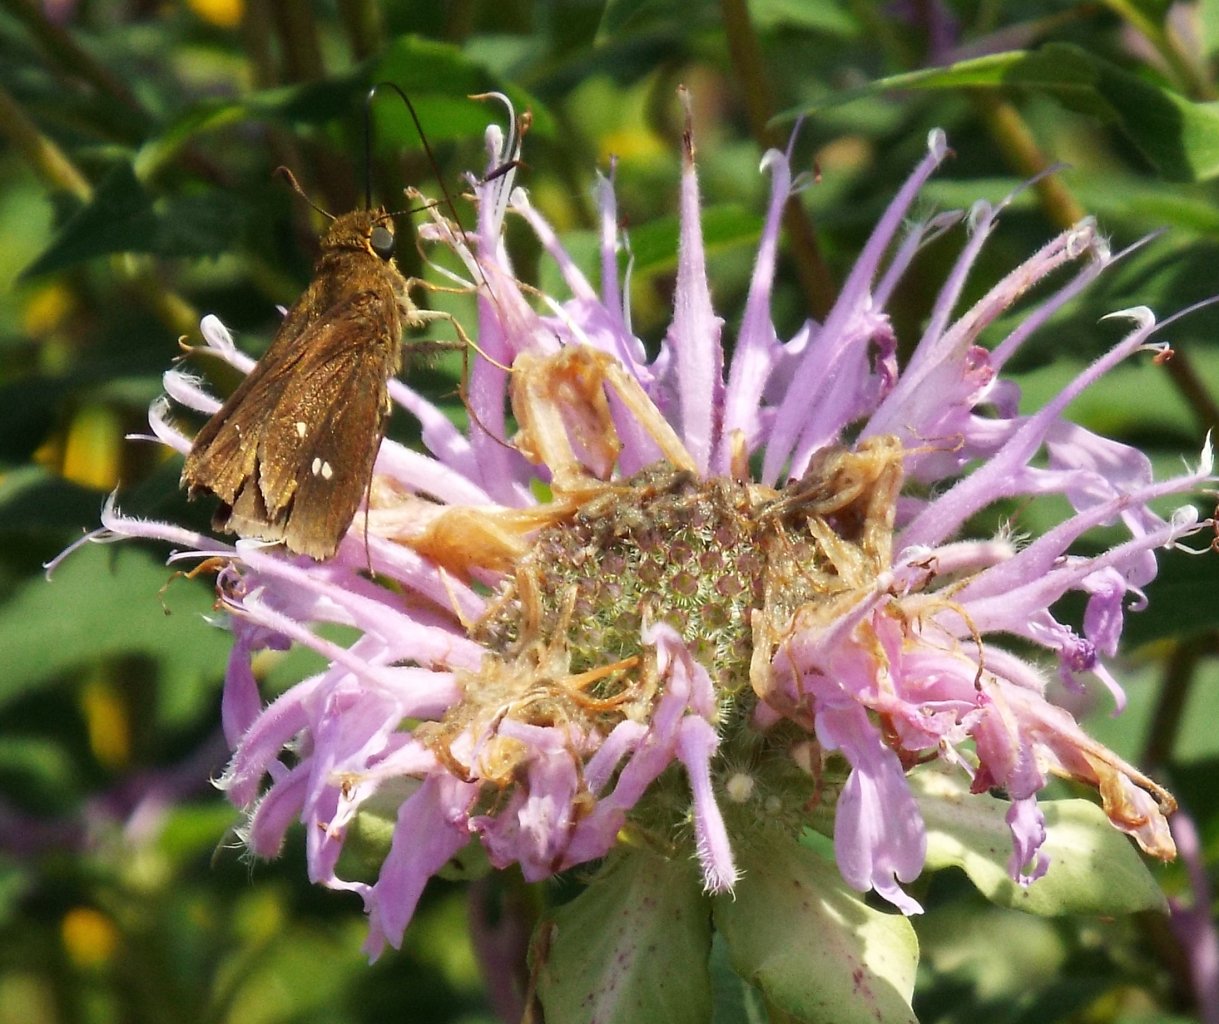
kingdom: Animalia
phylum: Arthropoda
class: Insecta
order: Lepidoptera
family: Hesperiidae
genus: Oligoria
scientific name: Oligoria maculata
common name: Twin-spot Skipper
